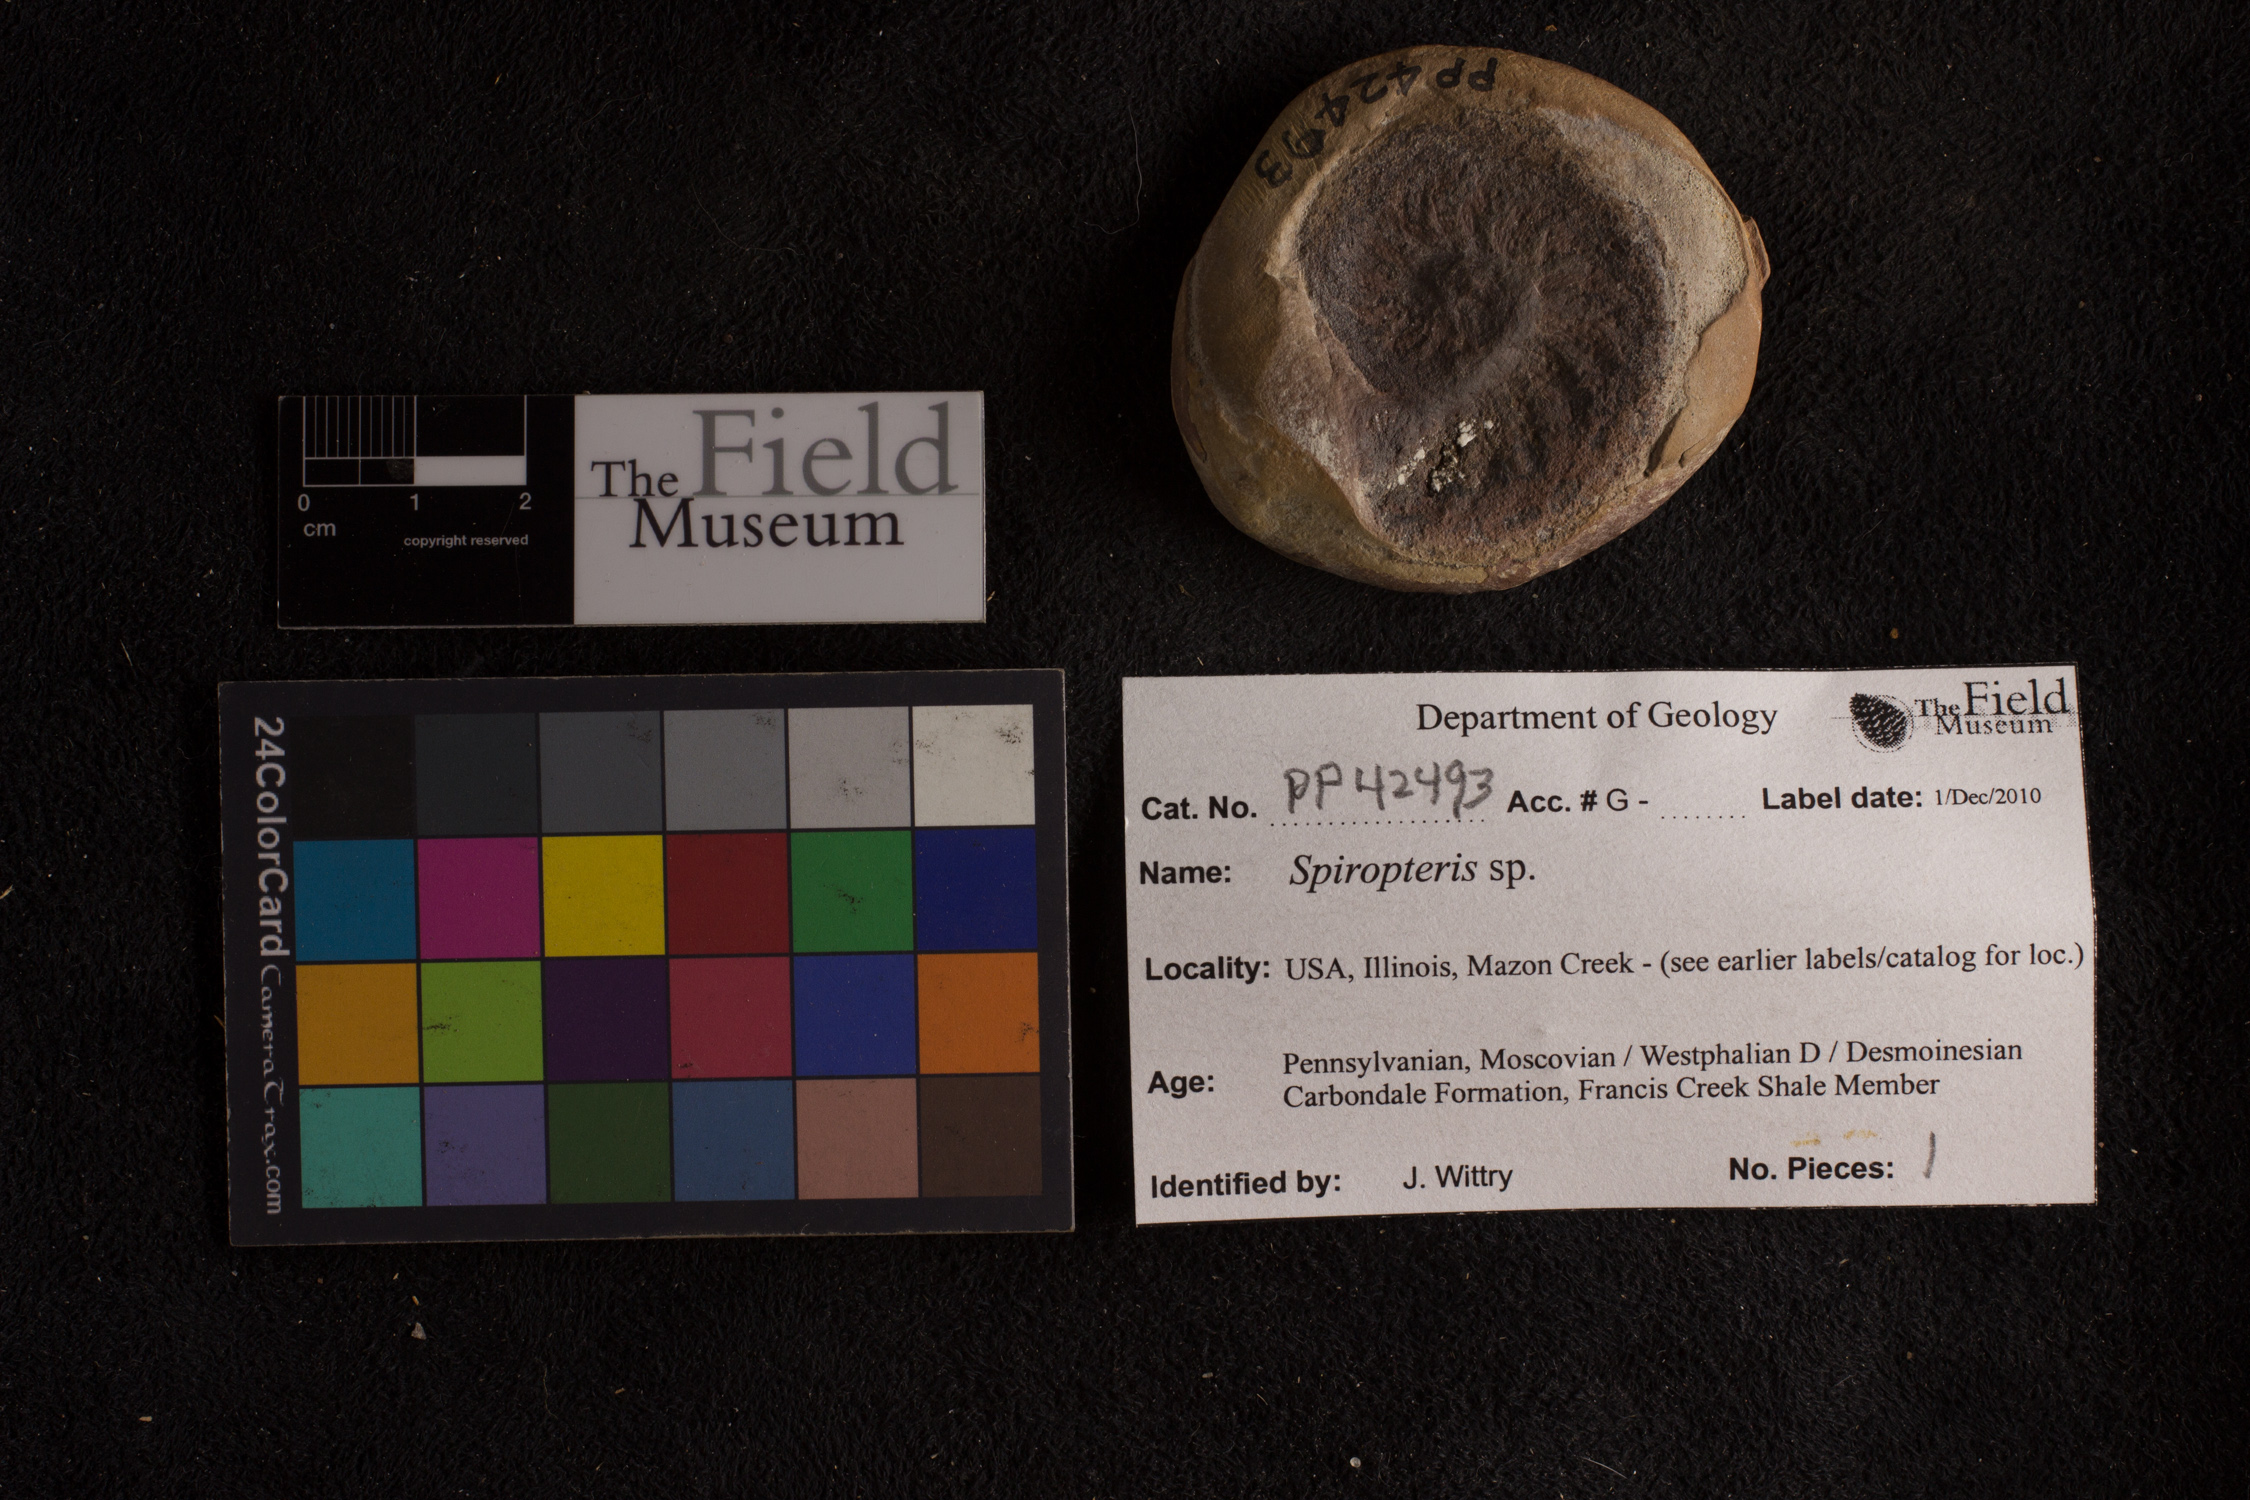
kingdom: Plantae
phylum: Tracheophyta
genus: Spiropteris
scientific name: Spiropteris
